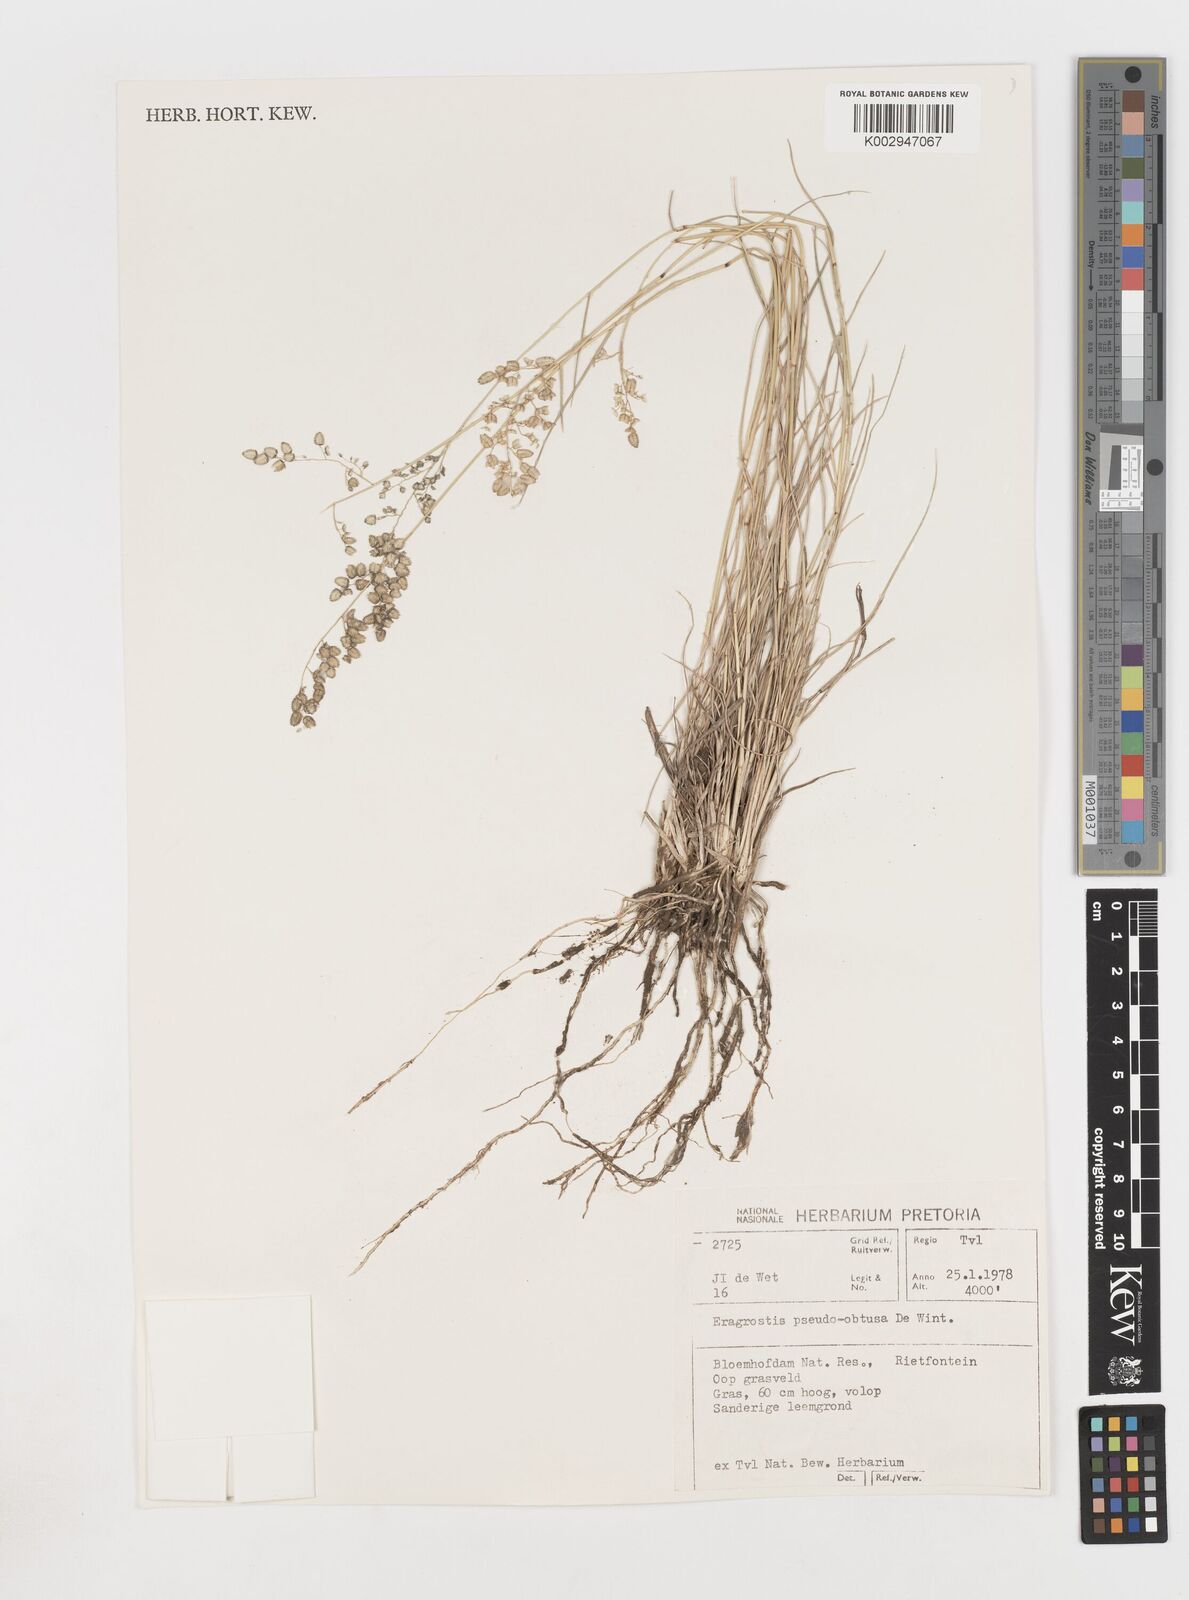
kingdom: Plantae
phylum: Tracheophyta
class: Liliopsida
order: Poales
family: Poaceae
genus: Eragrostis
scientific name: Eragrostis pseudobtusa
